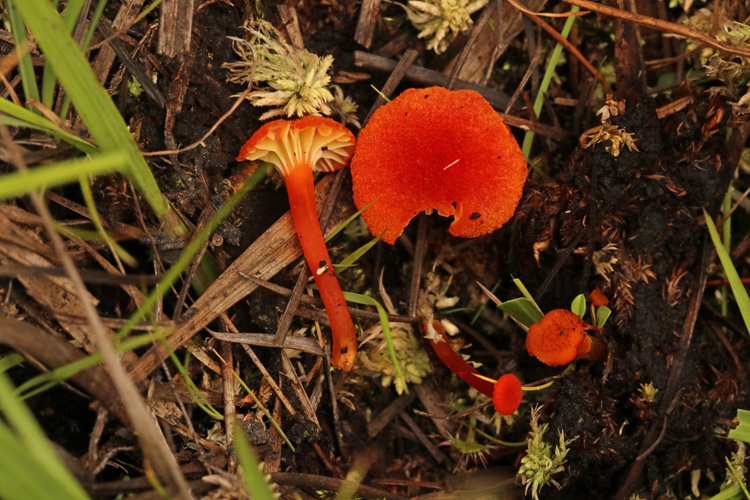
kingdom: Fungi
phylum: Basidiomycota
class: Agaricomycetes
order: Agaricales
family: Hygrophoraceae
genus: Hygrocybe
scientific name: Hygrocybe coccineocrenata
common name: tørvemos-vokshat
